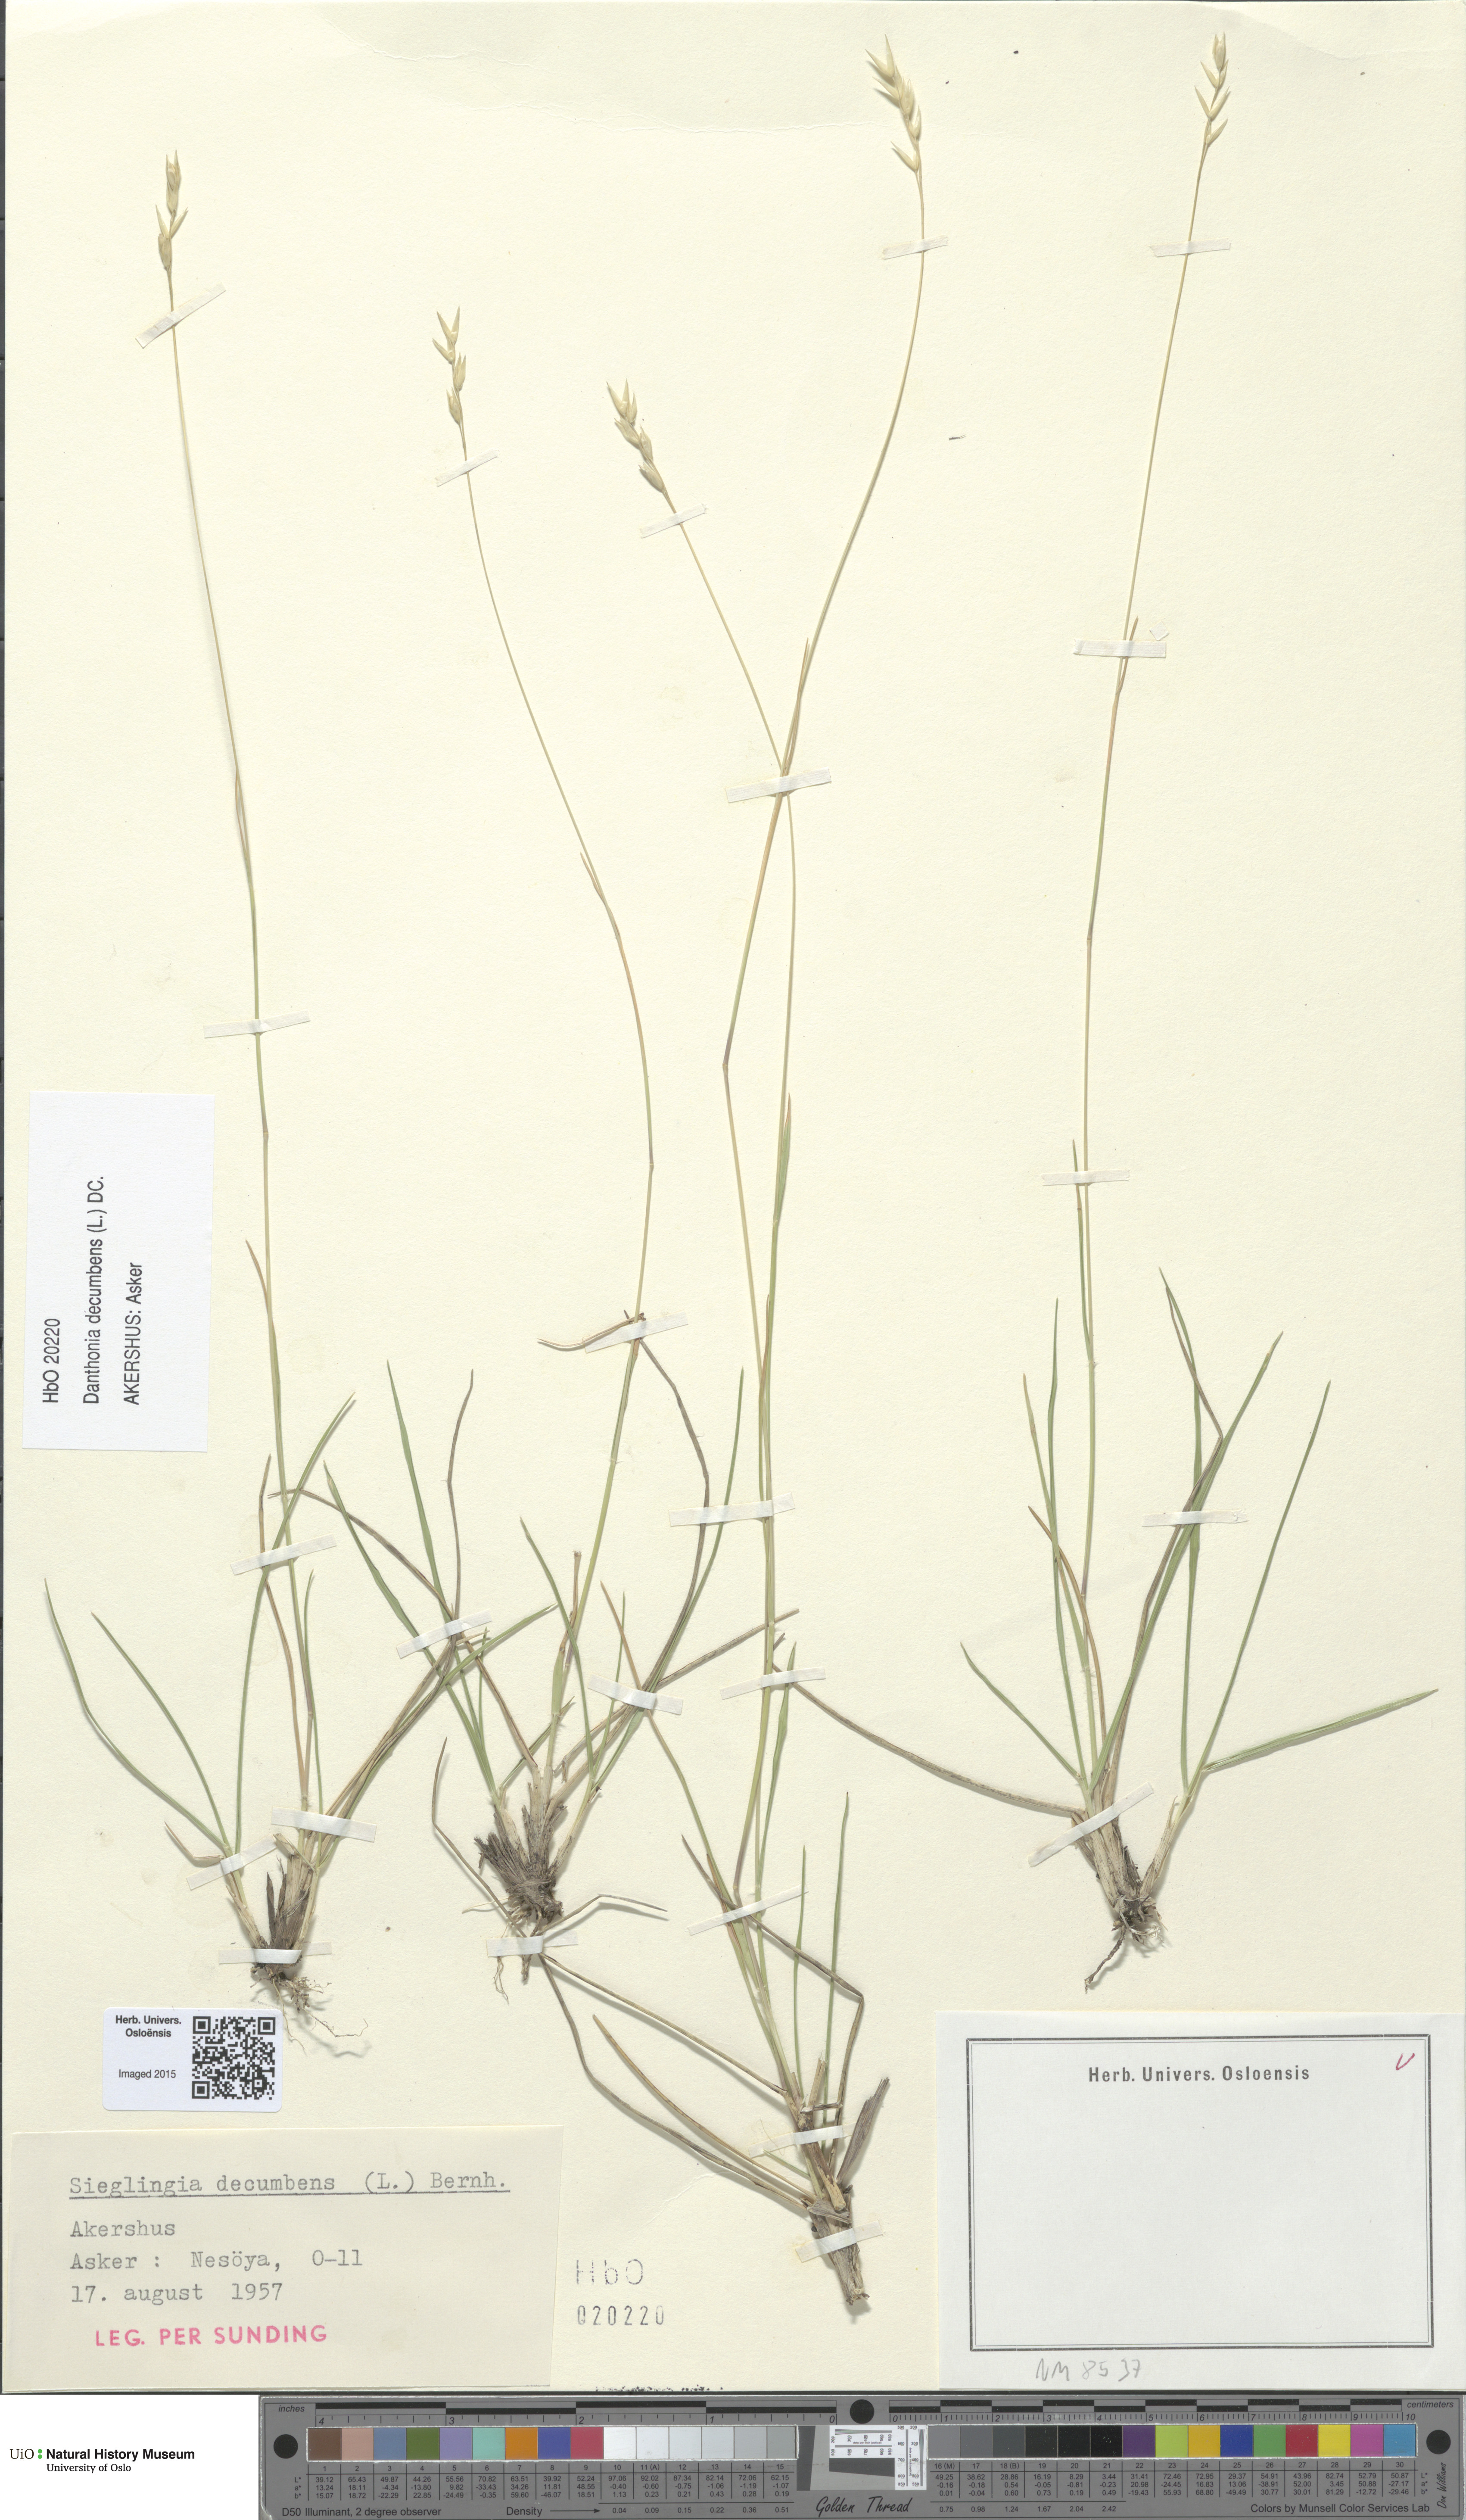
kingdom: Plantae
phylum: Tracheophyta
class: Liliopsida
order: Poales
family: Poaceae
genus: Danthonia
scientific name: Danthonia decumbens
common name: Common heathgrass
